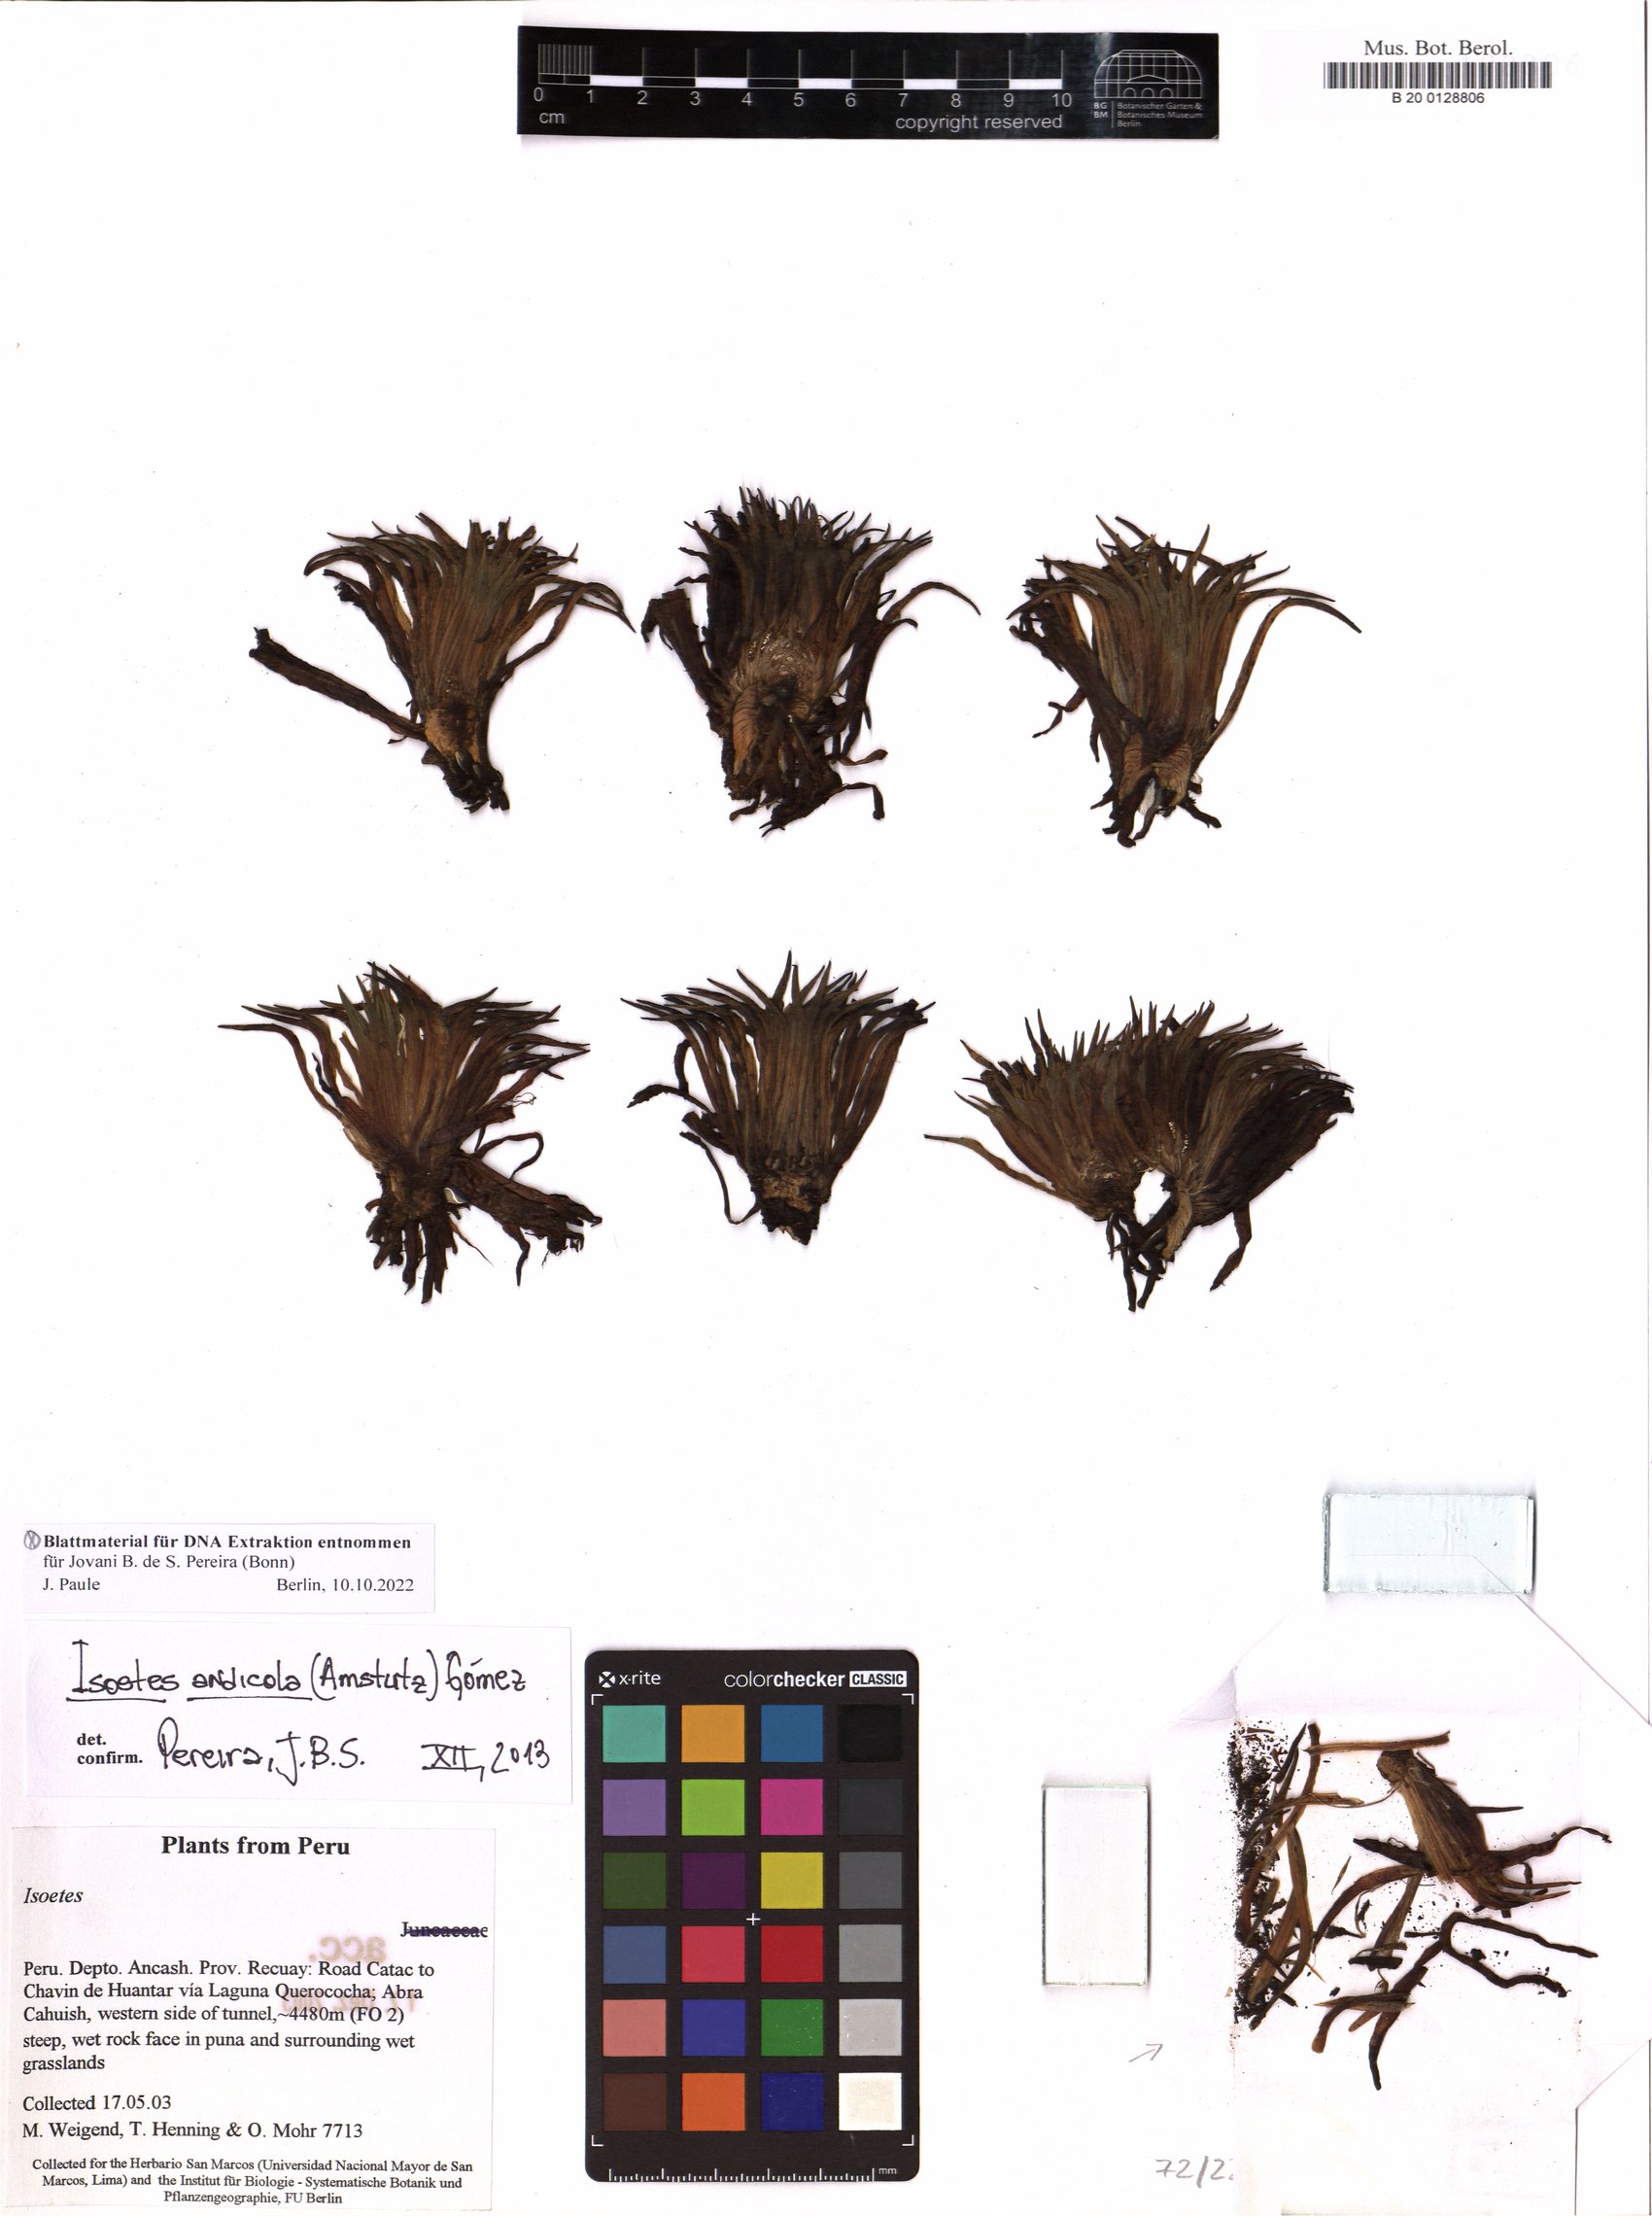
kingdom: Plantae
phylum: Tracheophyta
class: Lycopodiopsida
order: Isoetales
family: Isoetaceae
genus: Isoetes
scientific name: Isoetes andicola
